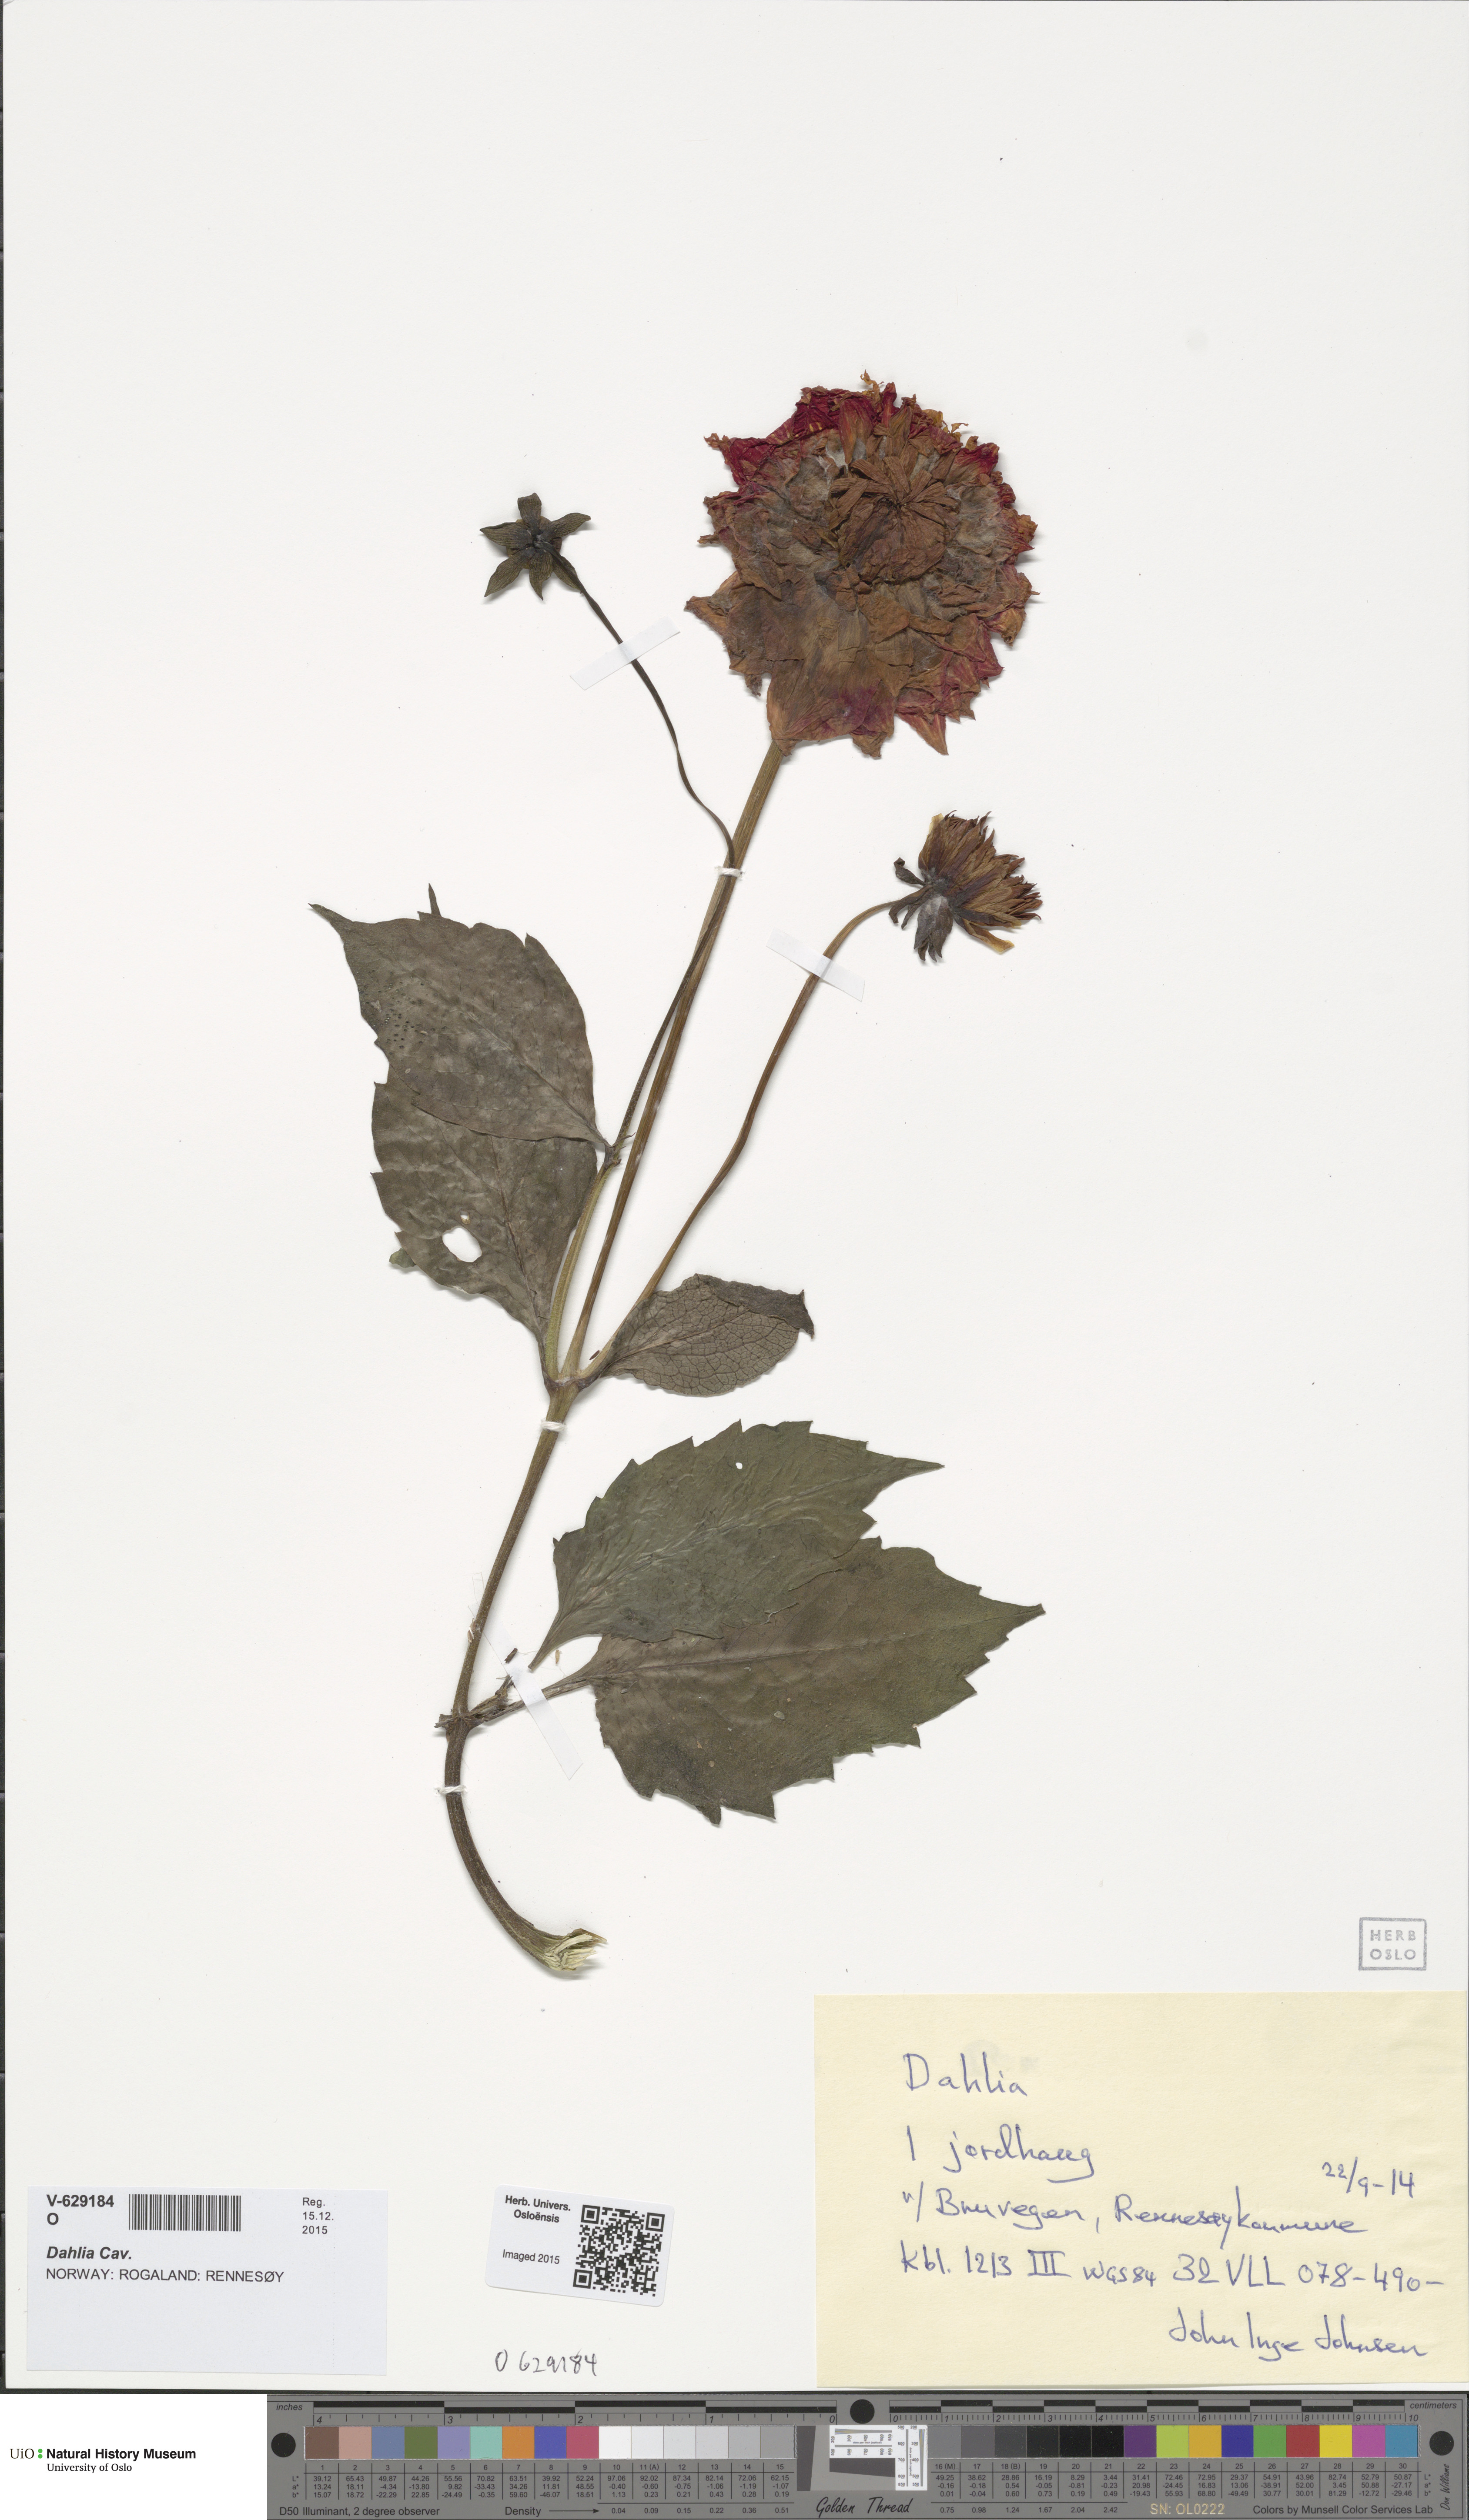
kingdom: Plantae
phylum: Tracheophyta
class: Magnoliopsida
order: Asterales
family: Asteraceae
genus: Dahlia
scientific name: Dahlia
